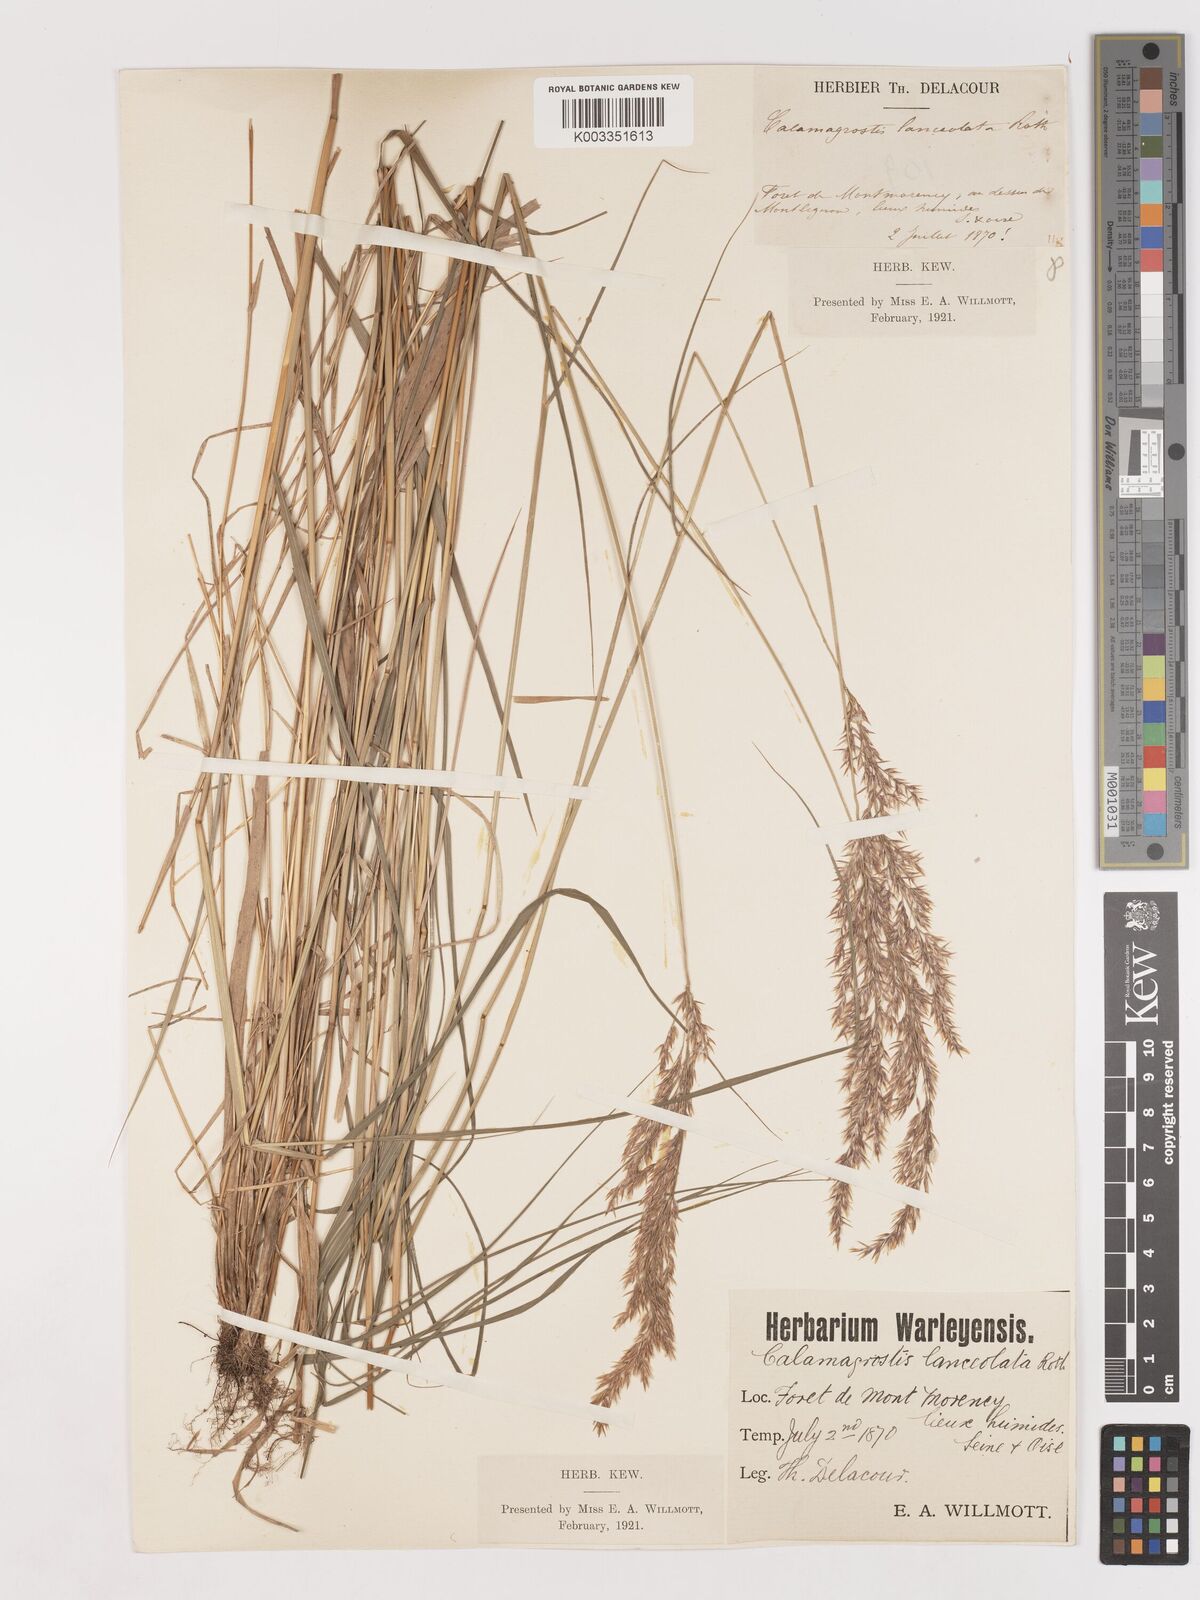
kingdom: Plantae
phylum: Tracheophyta
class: Liliopsida
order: Poales
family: Poaceae
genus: Calamagrostis
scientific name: Calamagrostis canescens
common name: Purple small-reed
